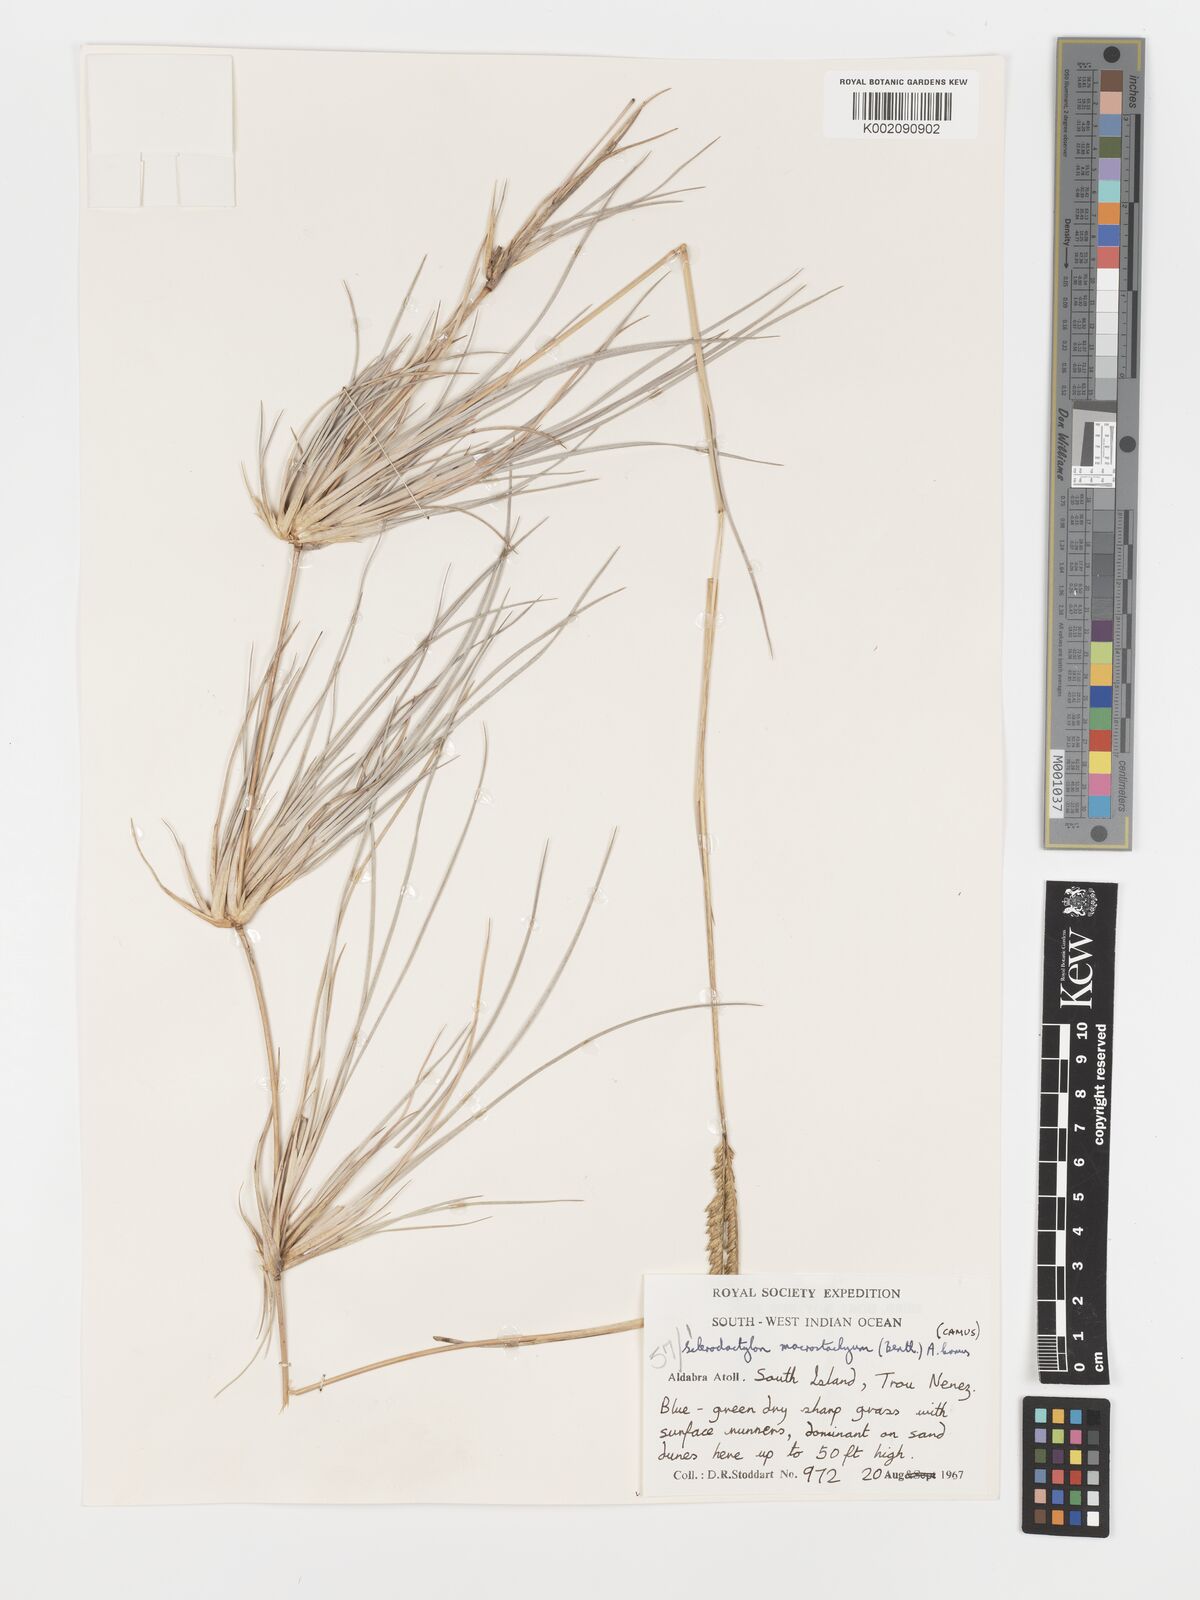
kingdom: Plantae
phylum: Tracheophyta
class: Liliopsida
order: Poales
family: Poaceae
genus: Sclerodactylon
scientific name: Sclerodactylon macrostachyum
